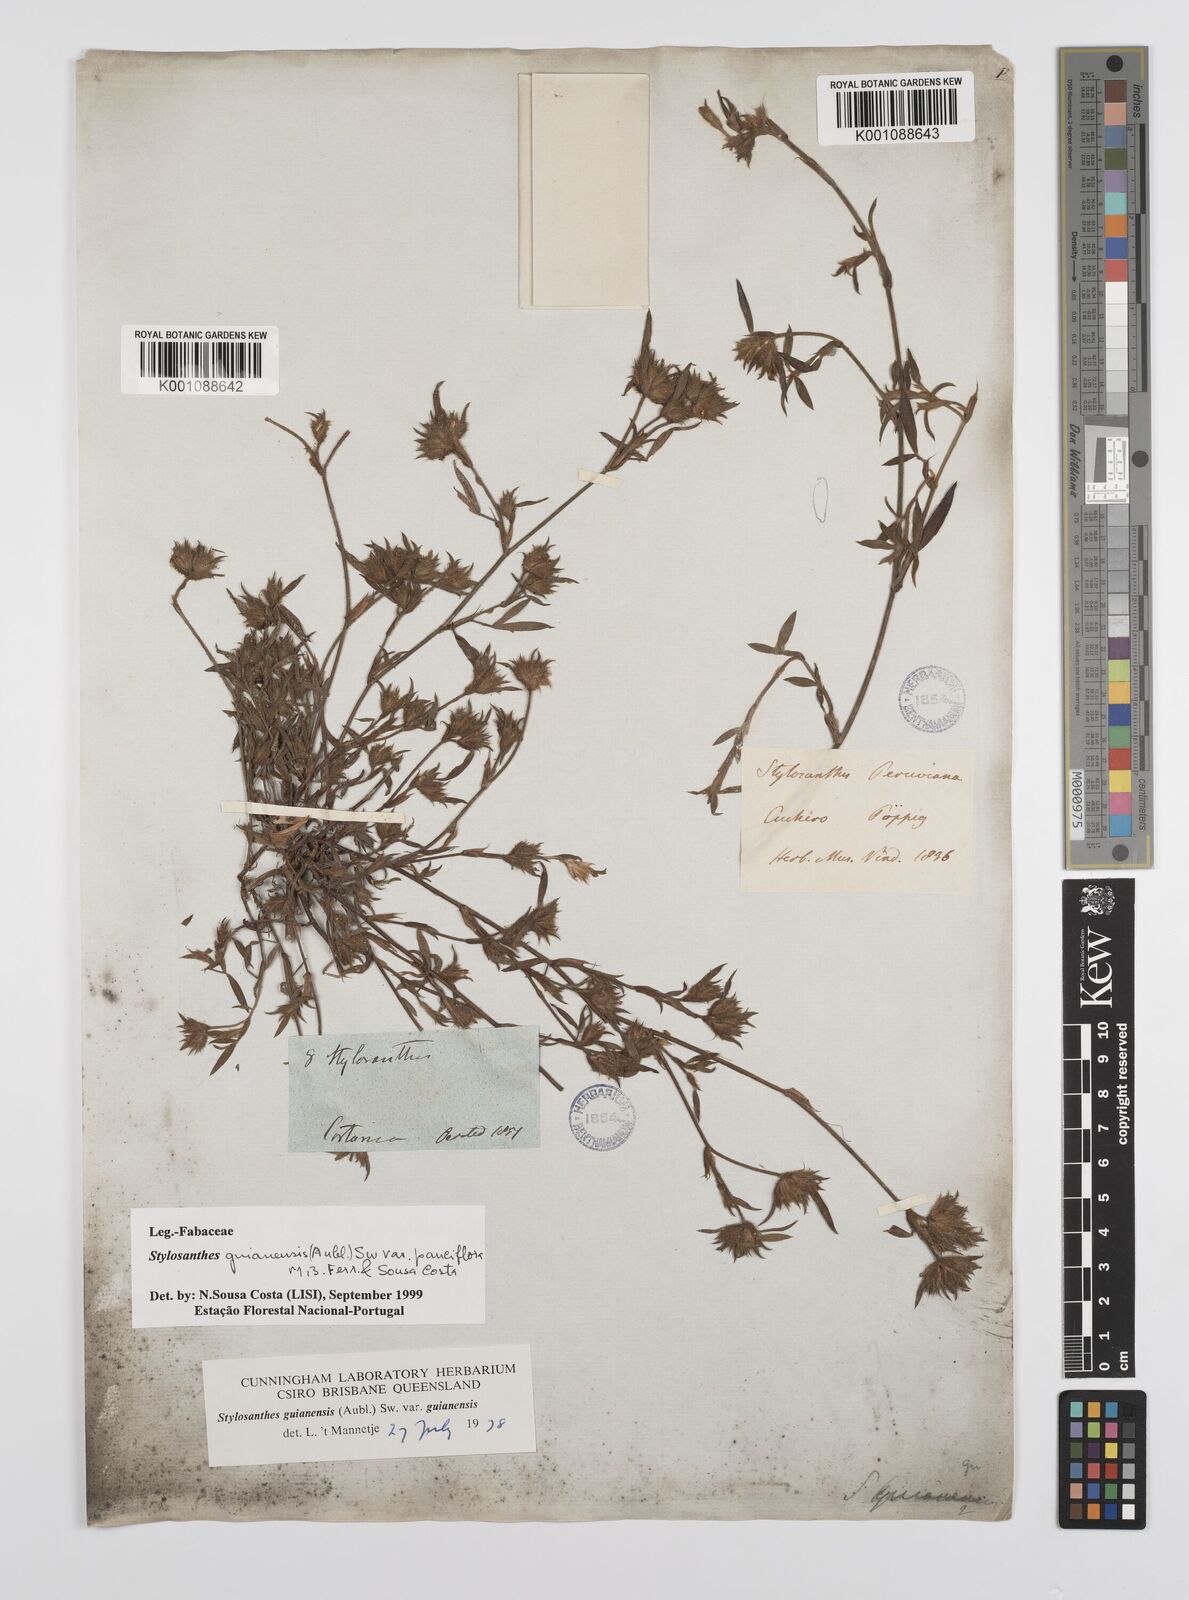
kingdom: Plantae
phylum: Tracheophyta
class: Magnoliopsida
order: Fabales
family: Fabaceae
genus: Stylosanthes
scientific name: Stylosanthes guianensis
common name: Pencil flower
